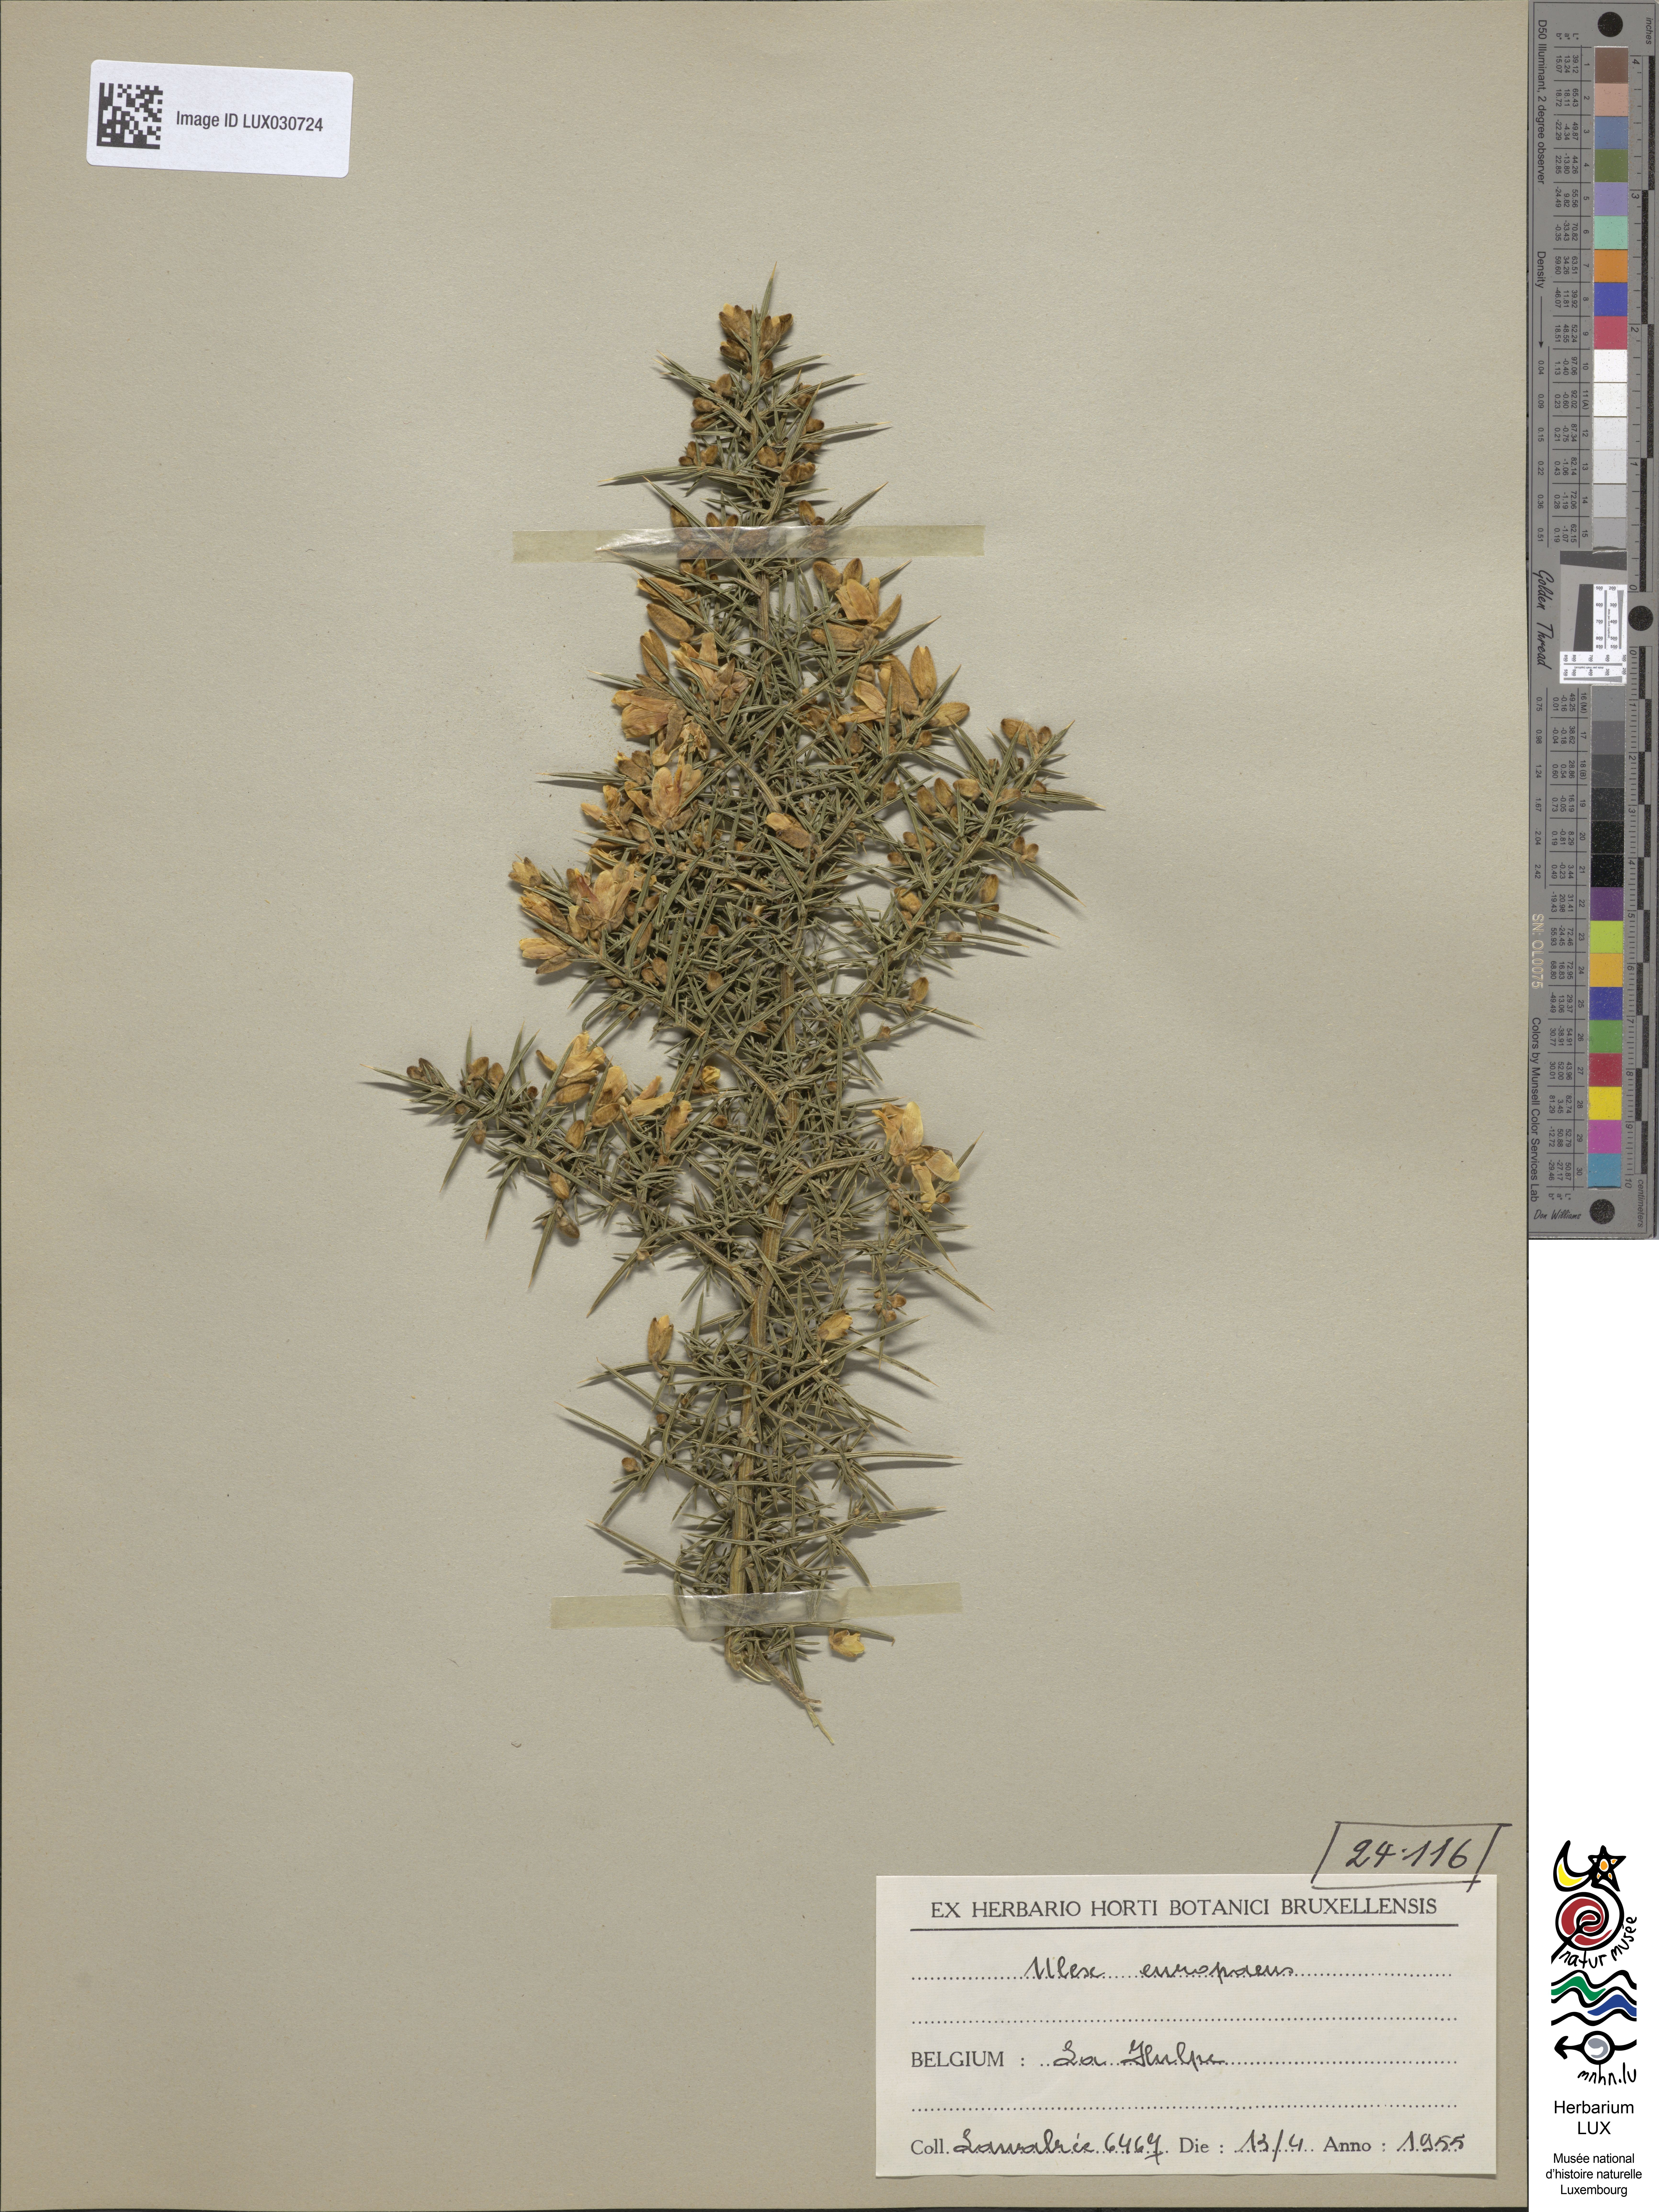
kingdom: Plantae
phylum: Tracheophyta
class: Magnoliopsida
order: Fabales
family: Fabaceae
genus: Ulex
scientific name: Ulex europaeus
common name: Common gorse
